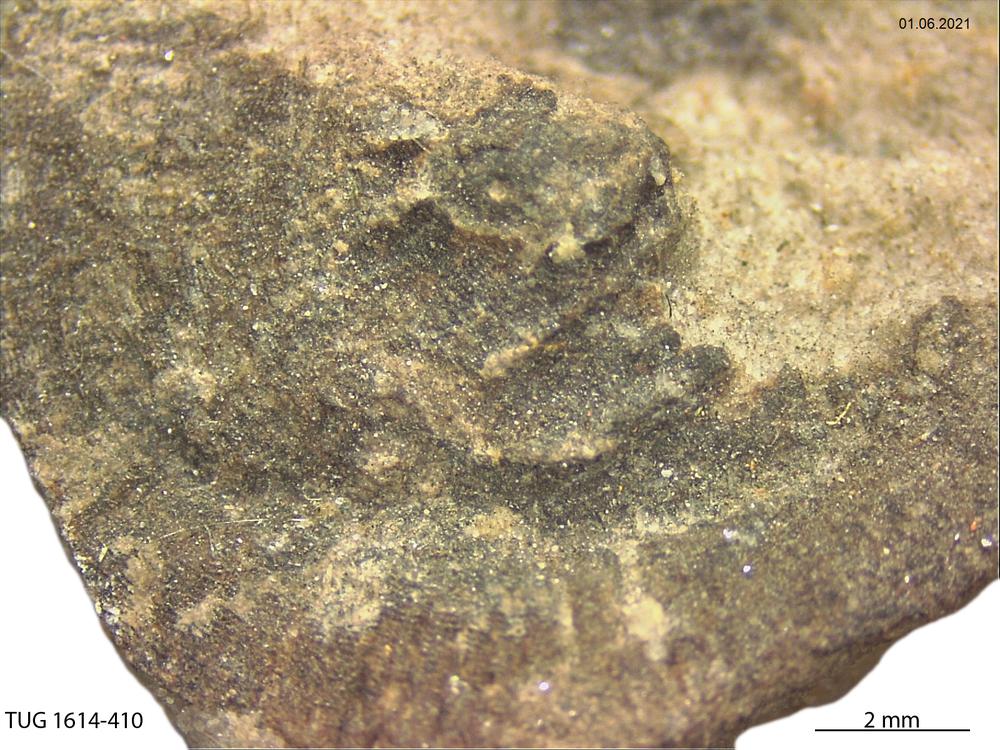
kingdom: Animalia
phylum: Mollusca
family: Scenellidae
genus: Scenella
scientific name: Scenella
